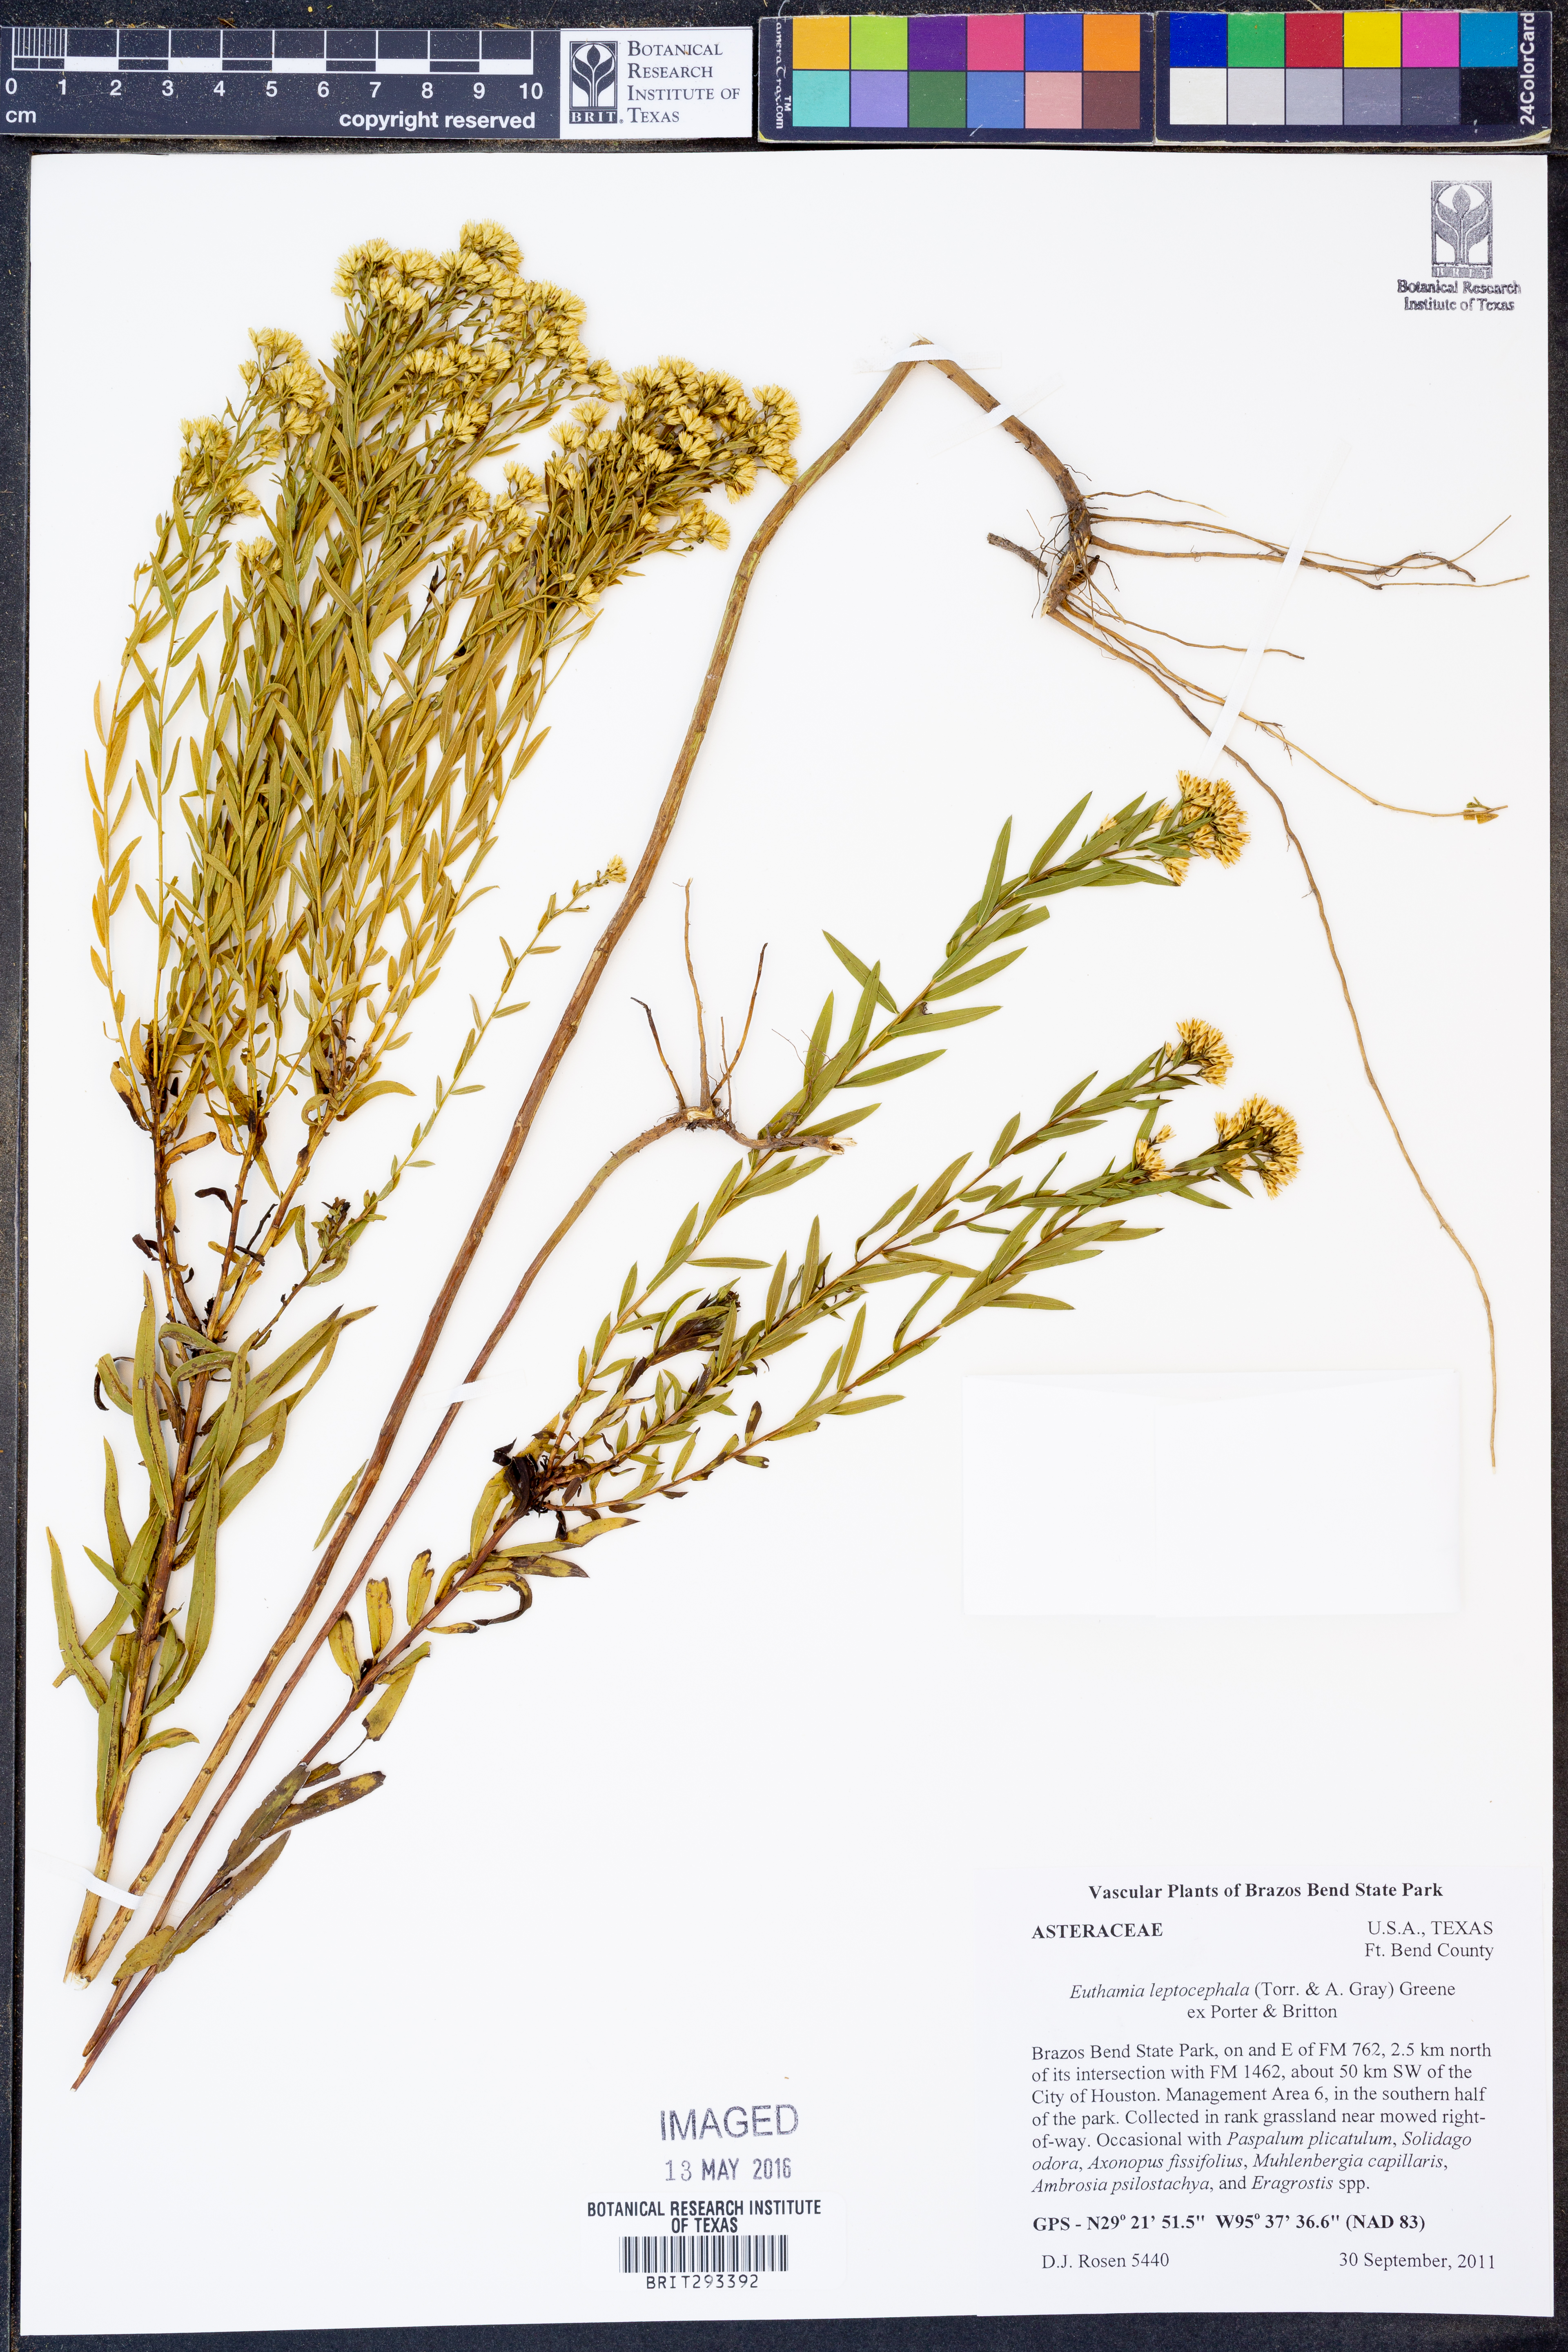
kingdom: Plantae
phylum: Tracheophyta
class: Magnoliopsida
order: Asterales
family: Asteraceae
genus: Euthamia
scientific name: Euthamia leptocephala
